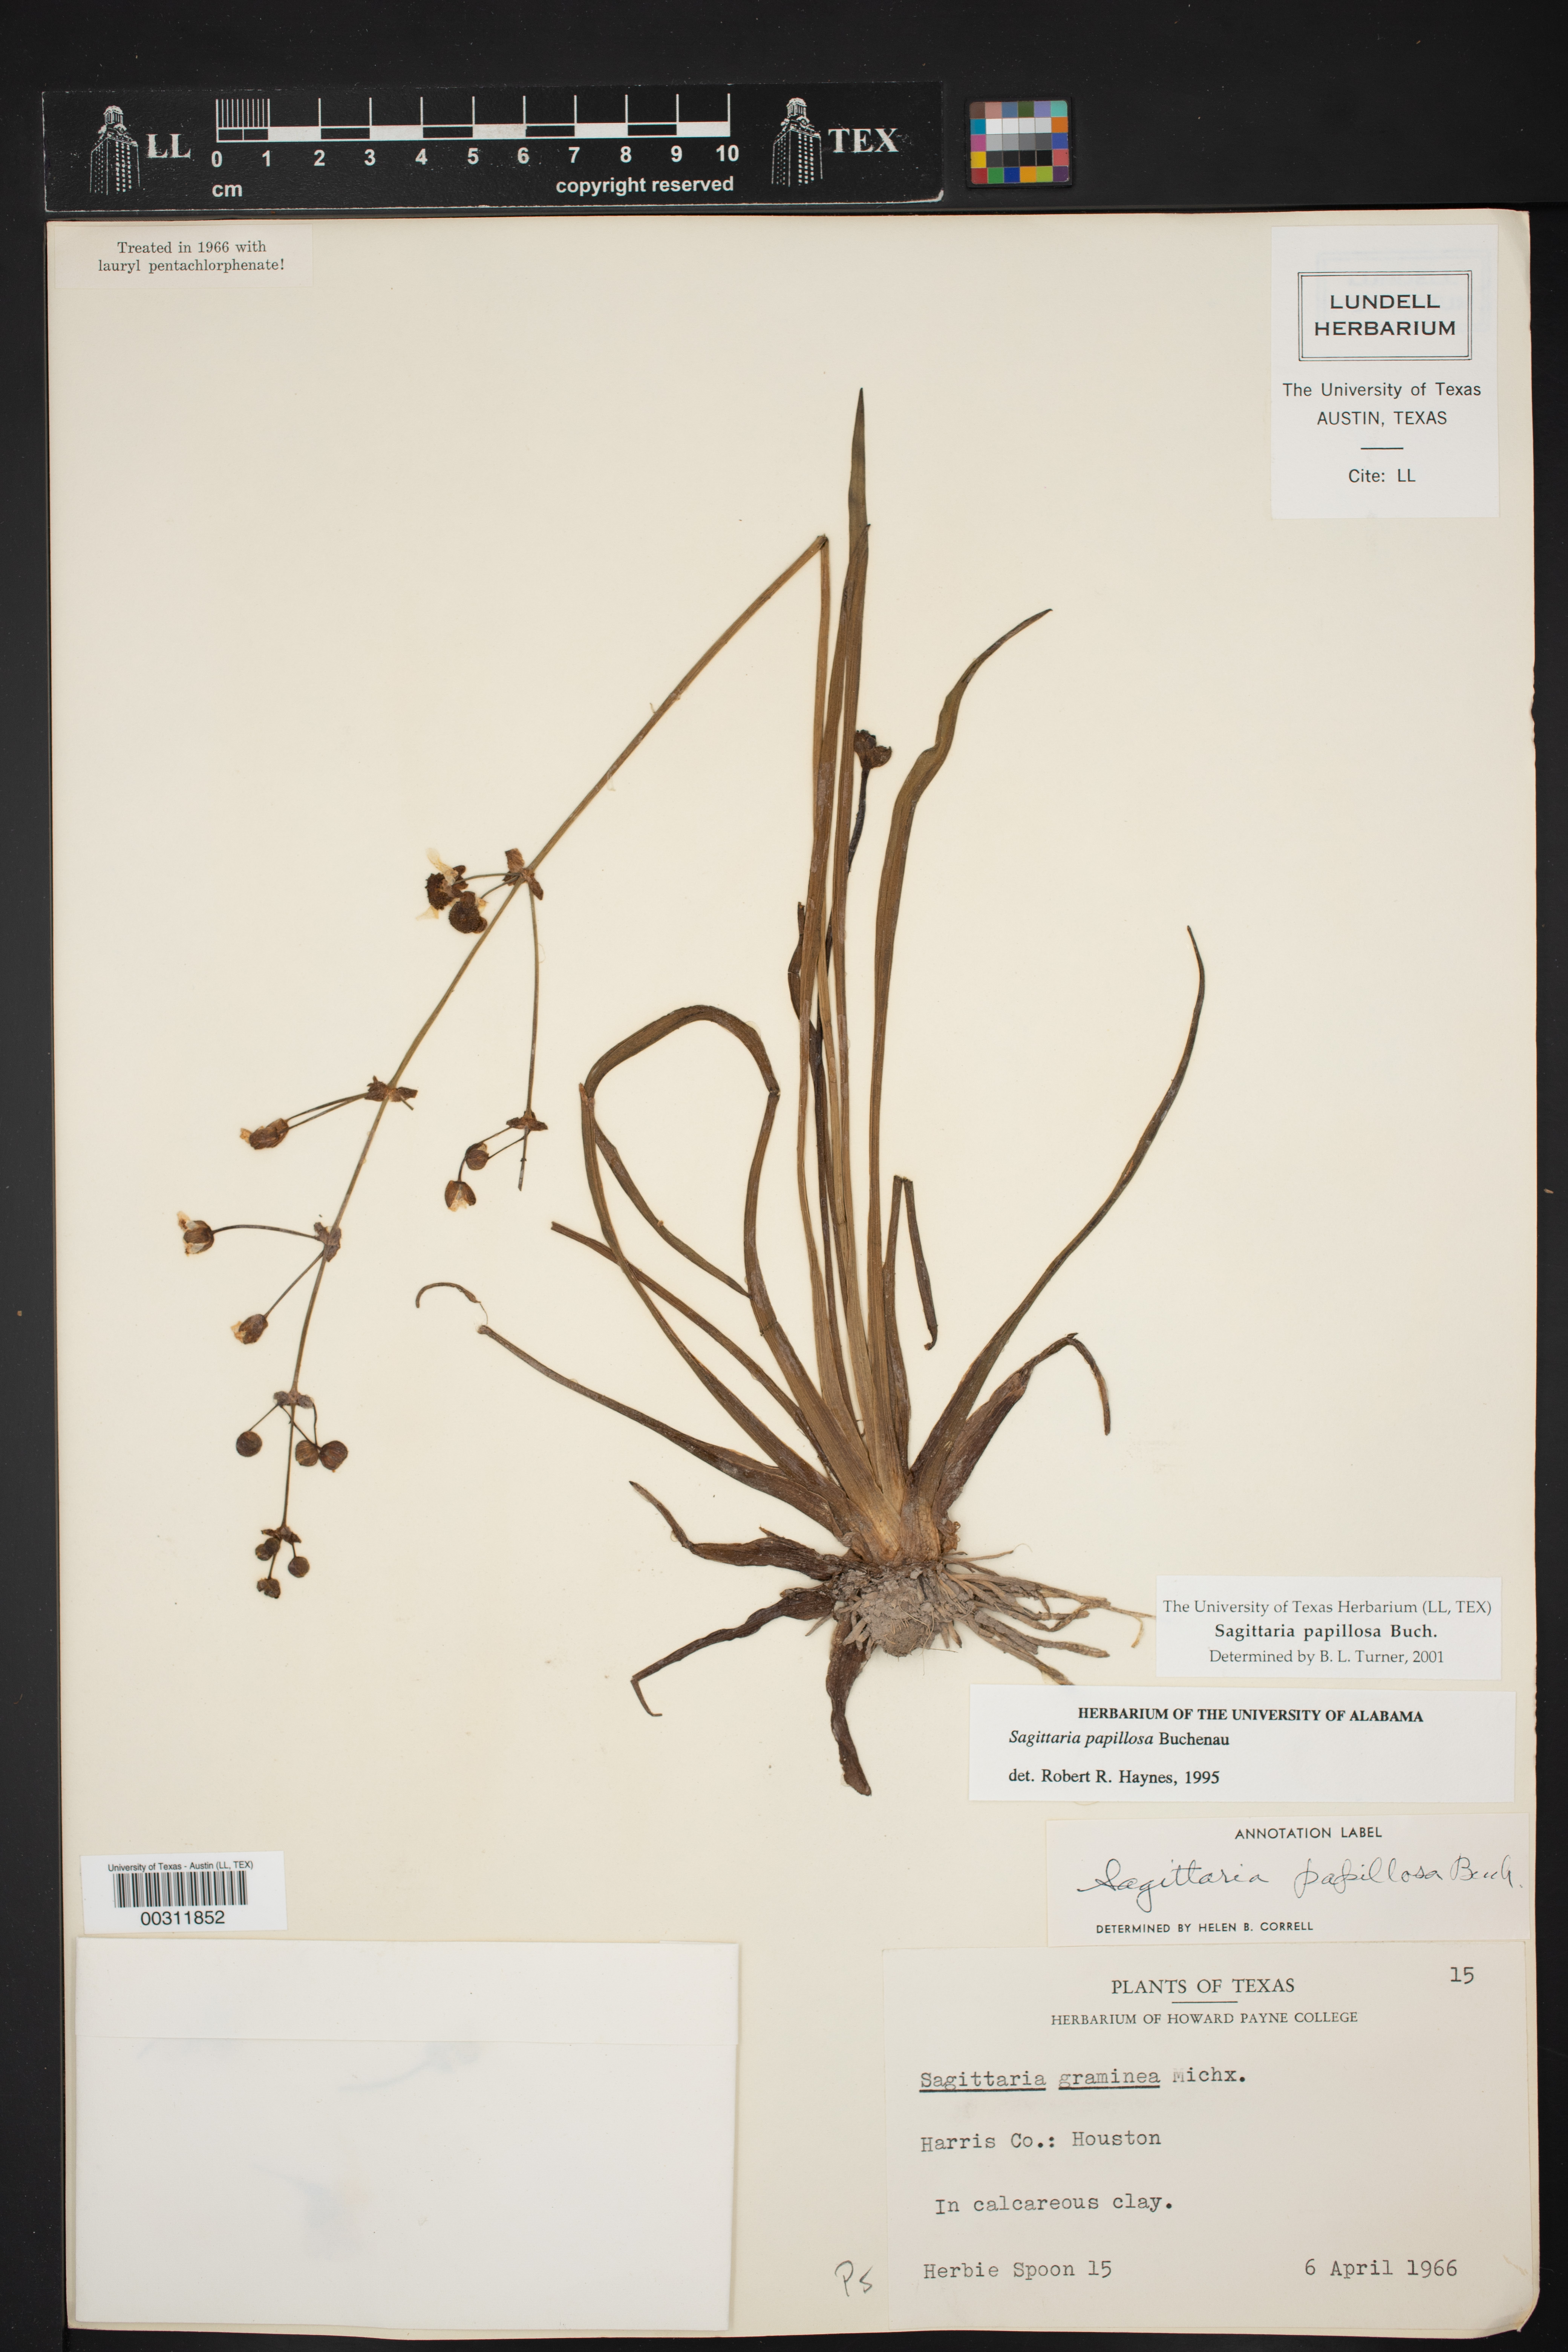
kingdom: Plantae
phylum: Tracheophyta
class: Liliopsida
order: Alismatales
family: Alismataceae
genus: Sagittaria
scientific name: Sagittaria papillosa
